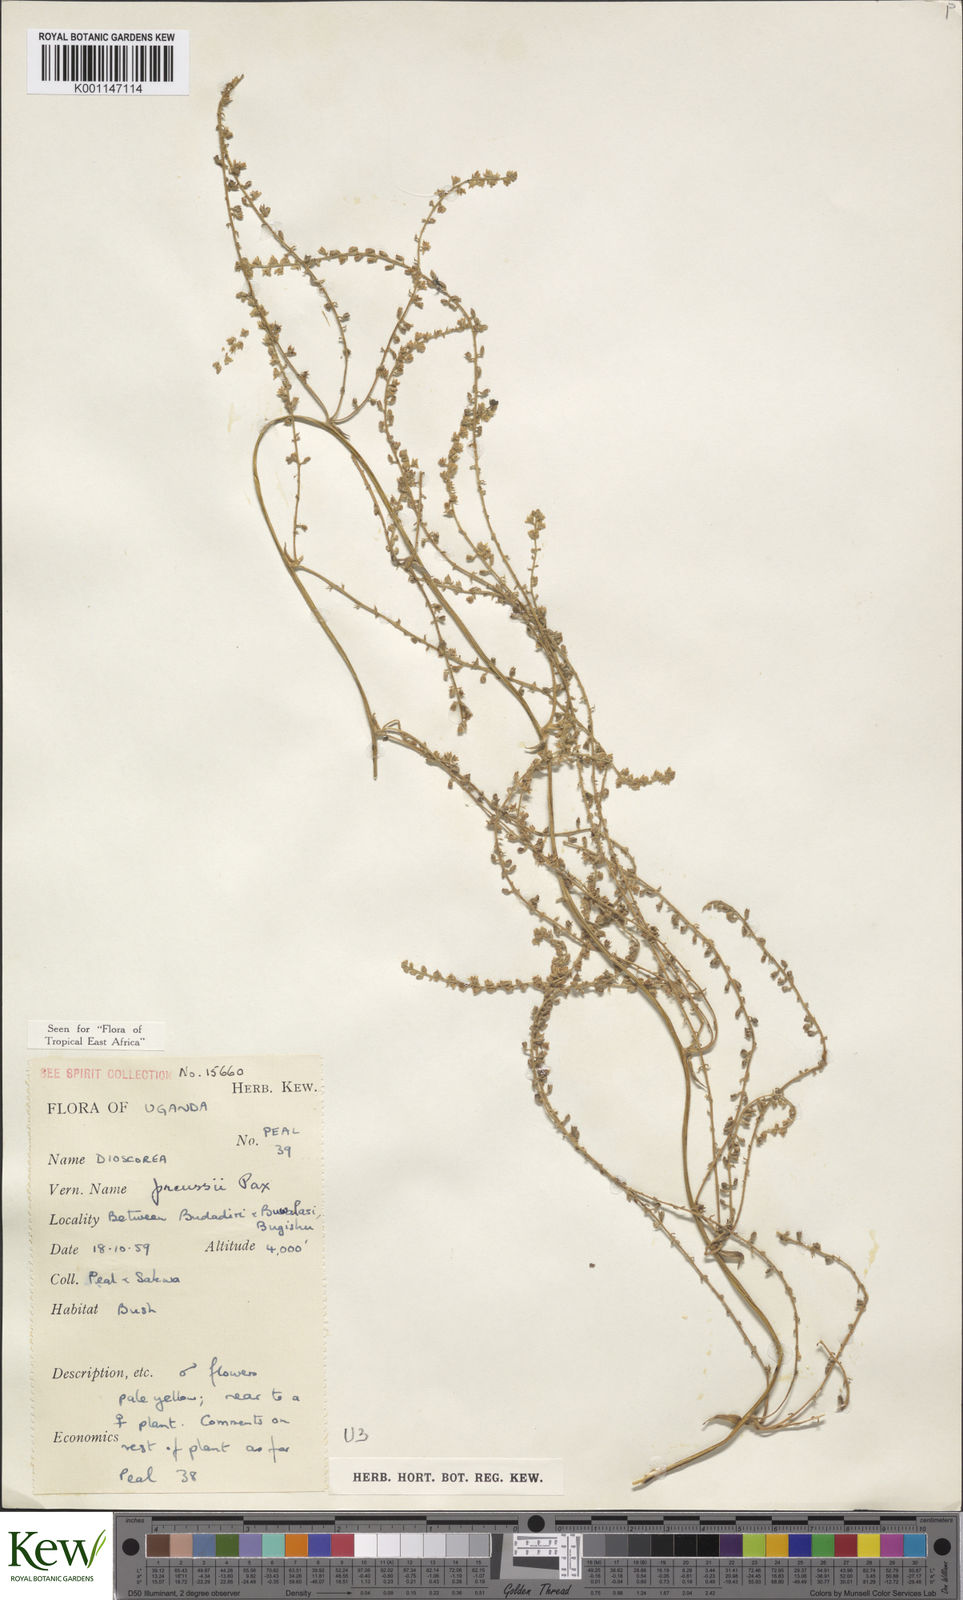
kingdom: Plantae
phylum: Tracheophyta
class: Liliopsida
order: Dioscoreales
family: Dioscoreaceae
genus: Dioscorea
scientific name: Dioscorea preussii
